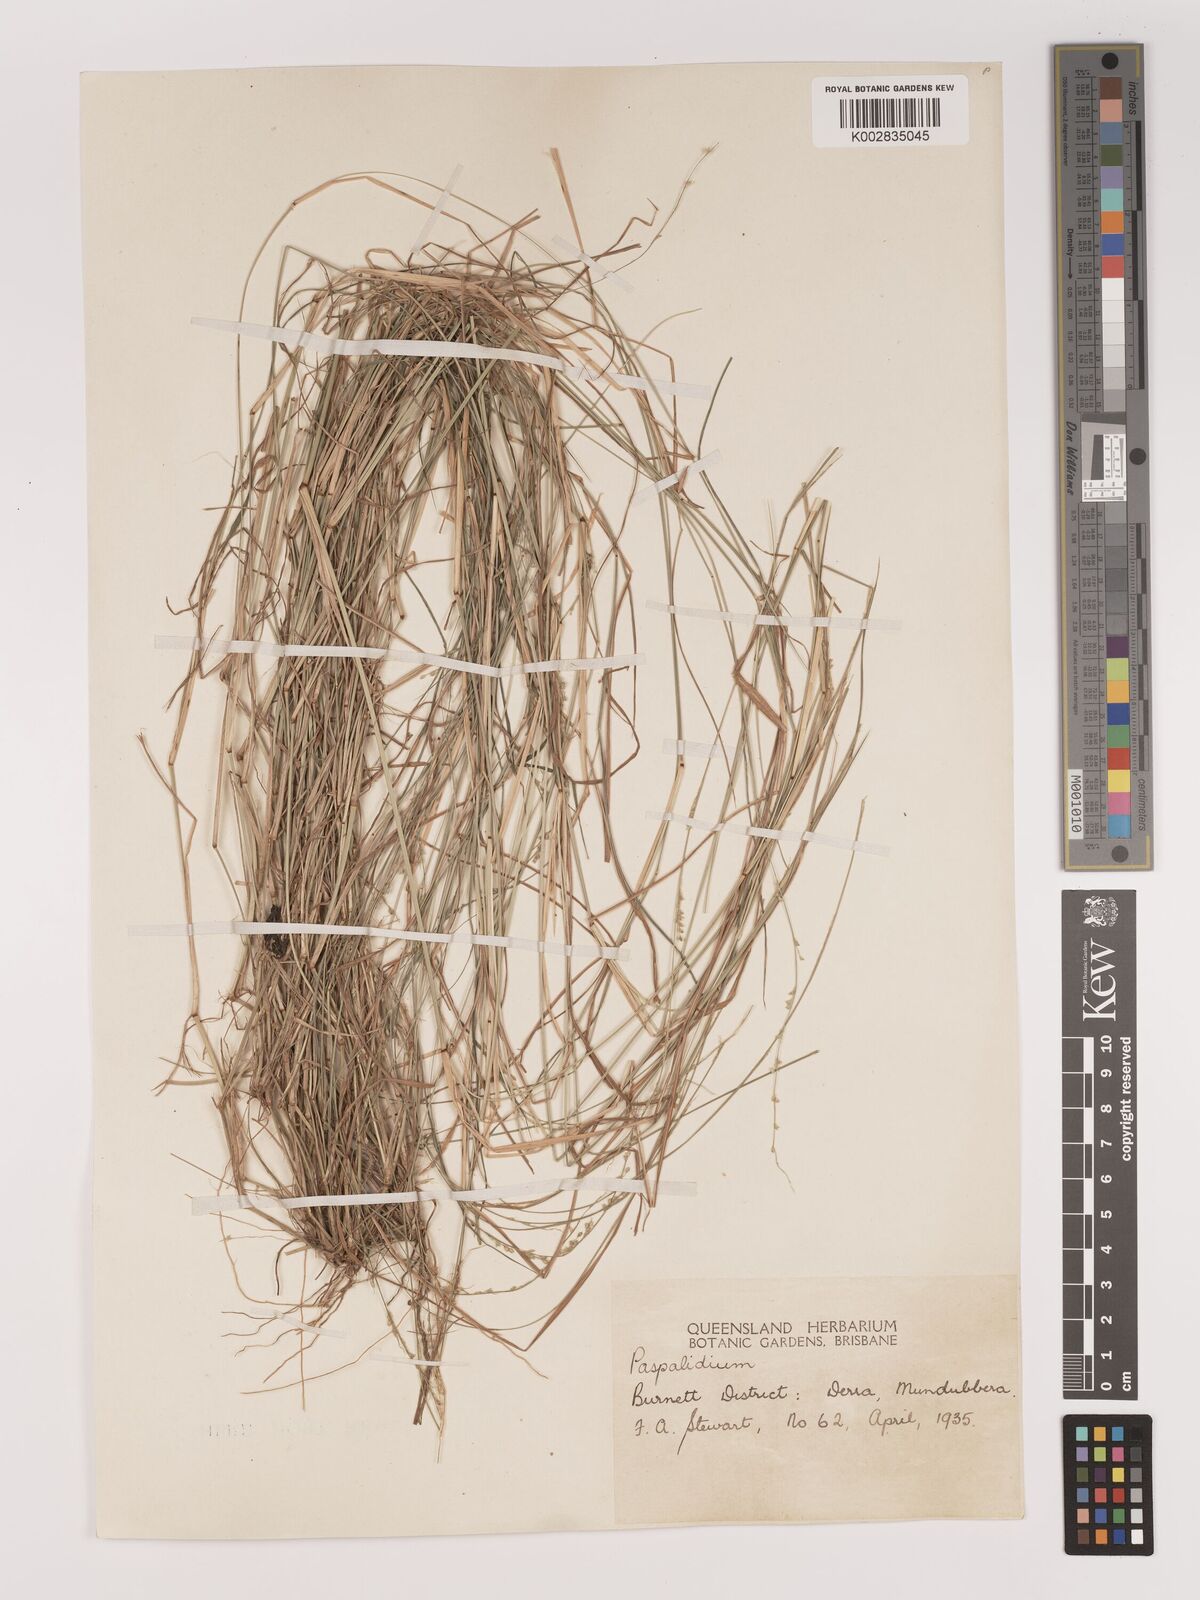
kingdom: Plantae
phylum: Tracheophyta
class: Liliopsida
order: Poales
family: Poaceae
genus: Setaria
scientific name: Setaria
